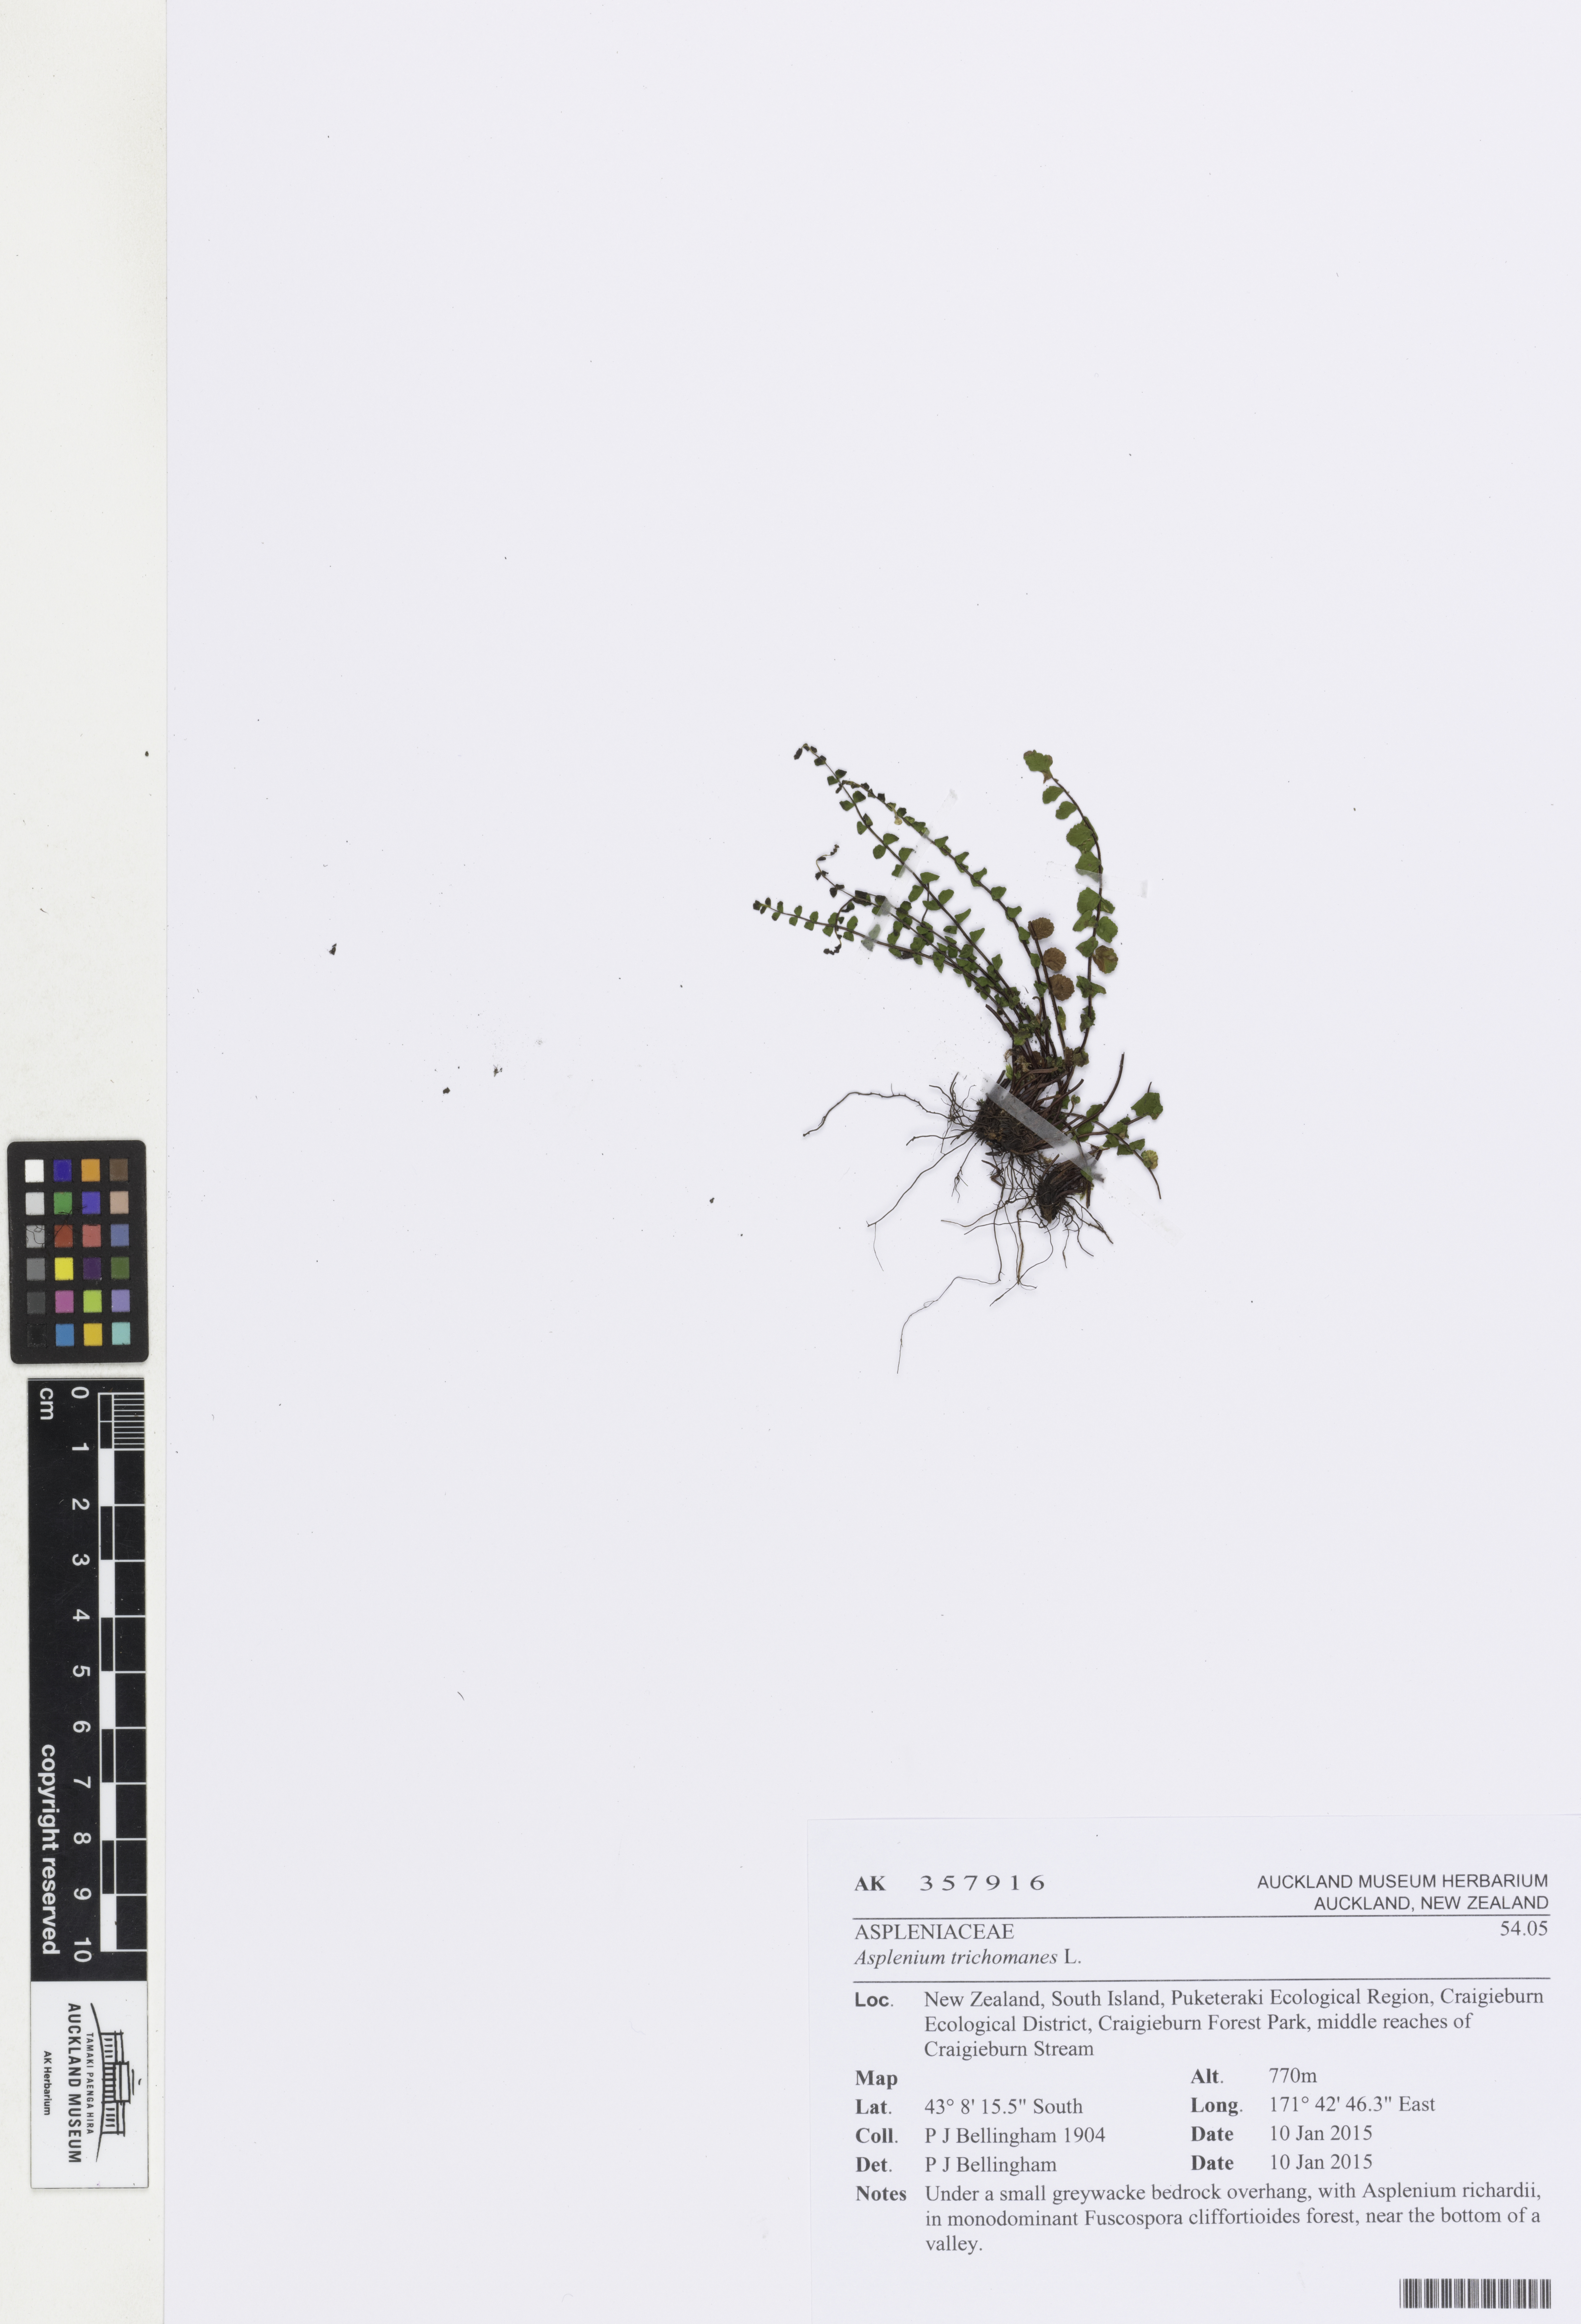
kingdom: Plantae
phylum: Tracheophyta
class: Polypodiopsida
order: Polypodiales
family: Aspleniaceae
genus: Asplenium
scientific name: Asplenium trichomanes
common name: Maidenhair spleenwort
